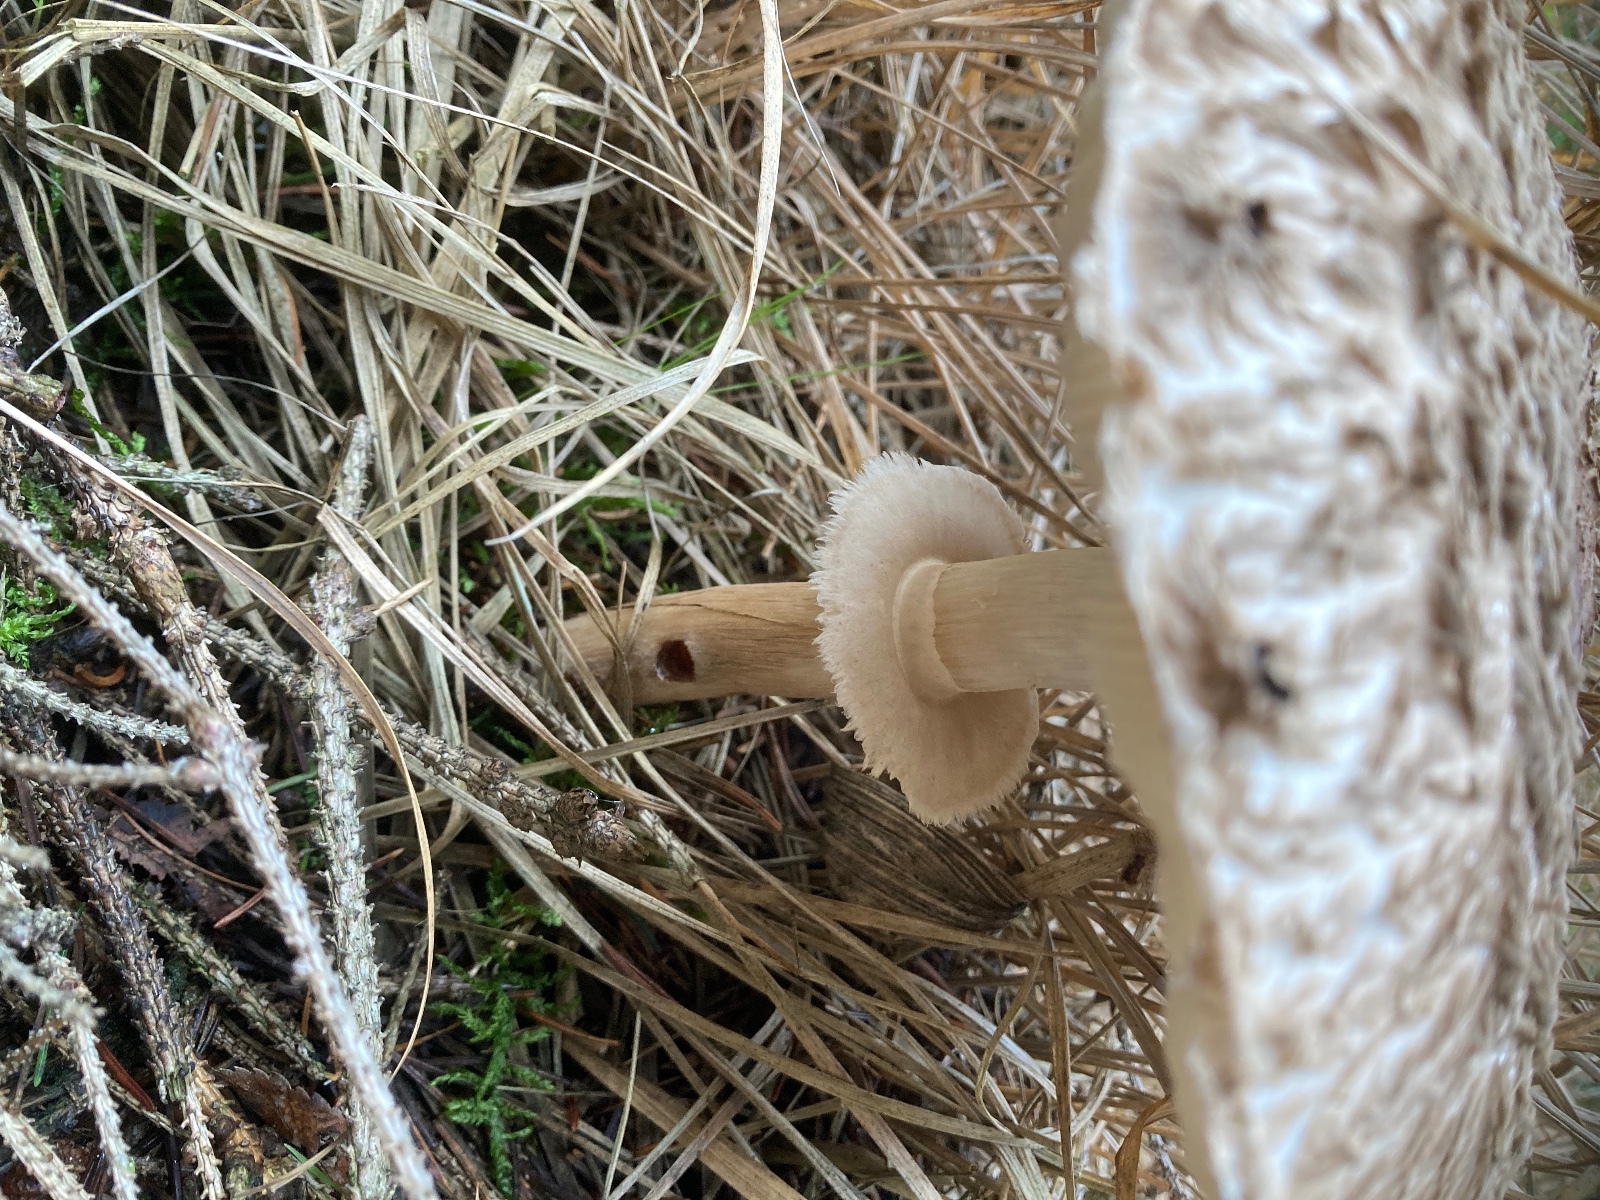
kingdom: Fungi
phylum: Basidiomycota
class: Agaricomycetes
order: Agaricales
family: Agaricaceae
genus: Chlorophyllum
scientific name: Chlorophyllum olivieri
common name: almindelig rabarberhat
